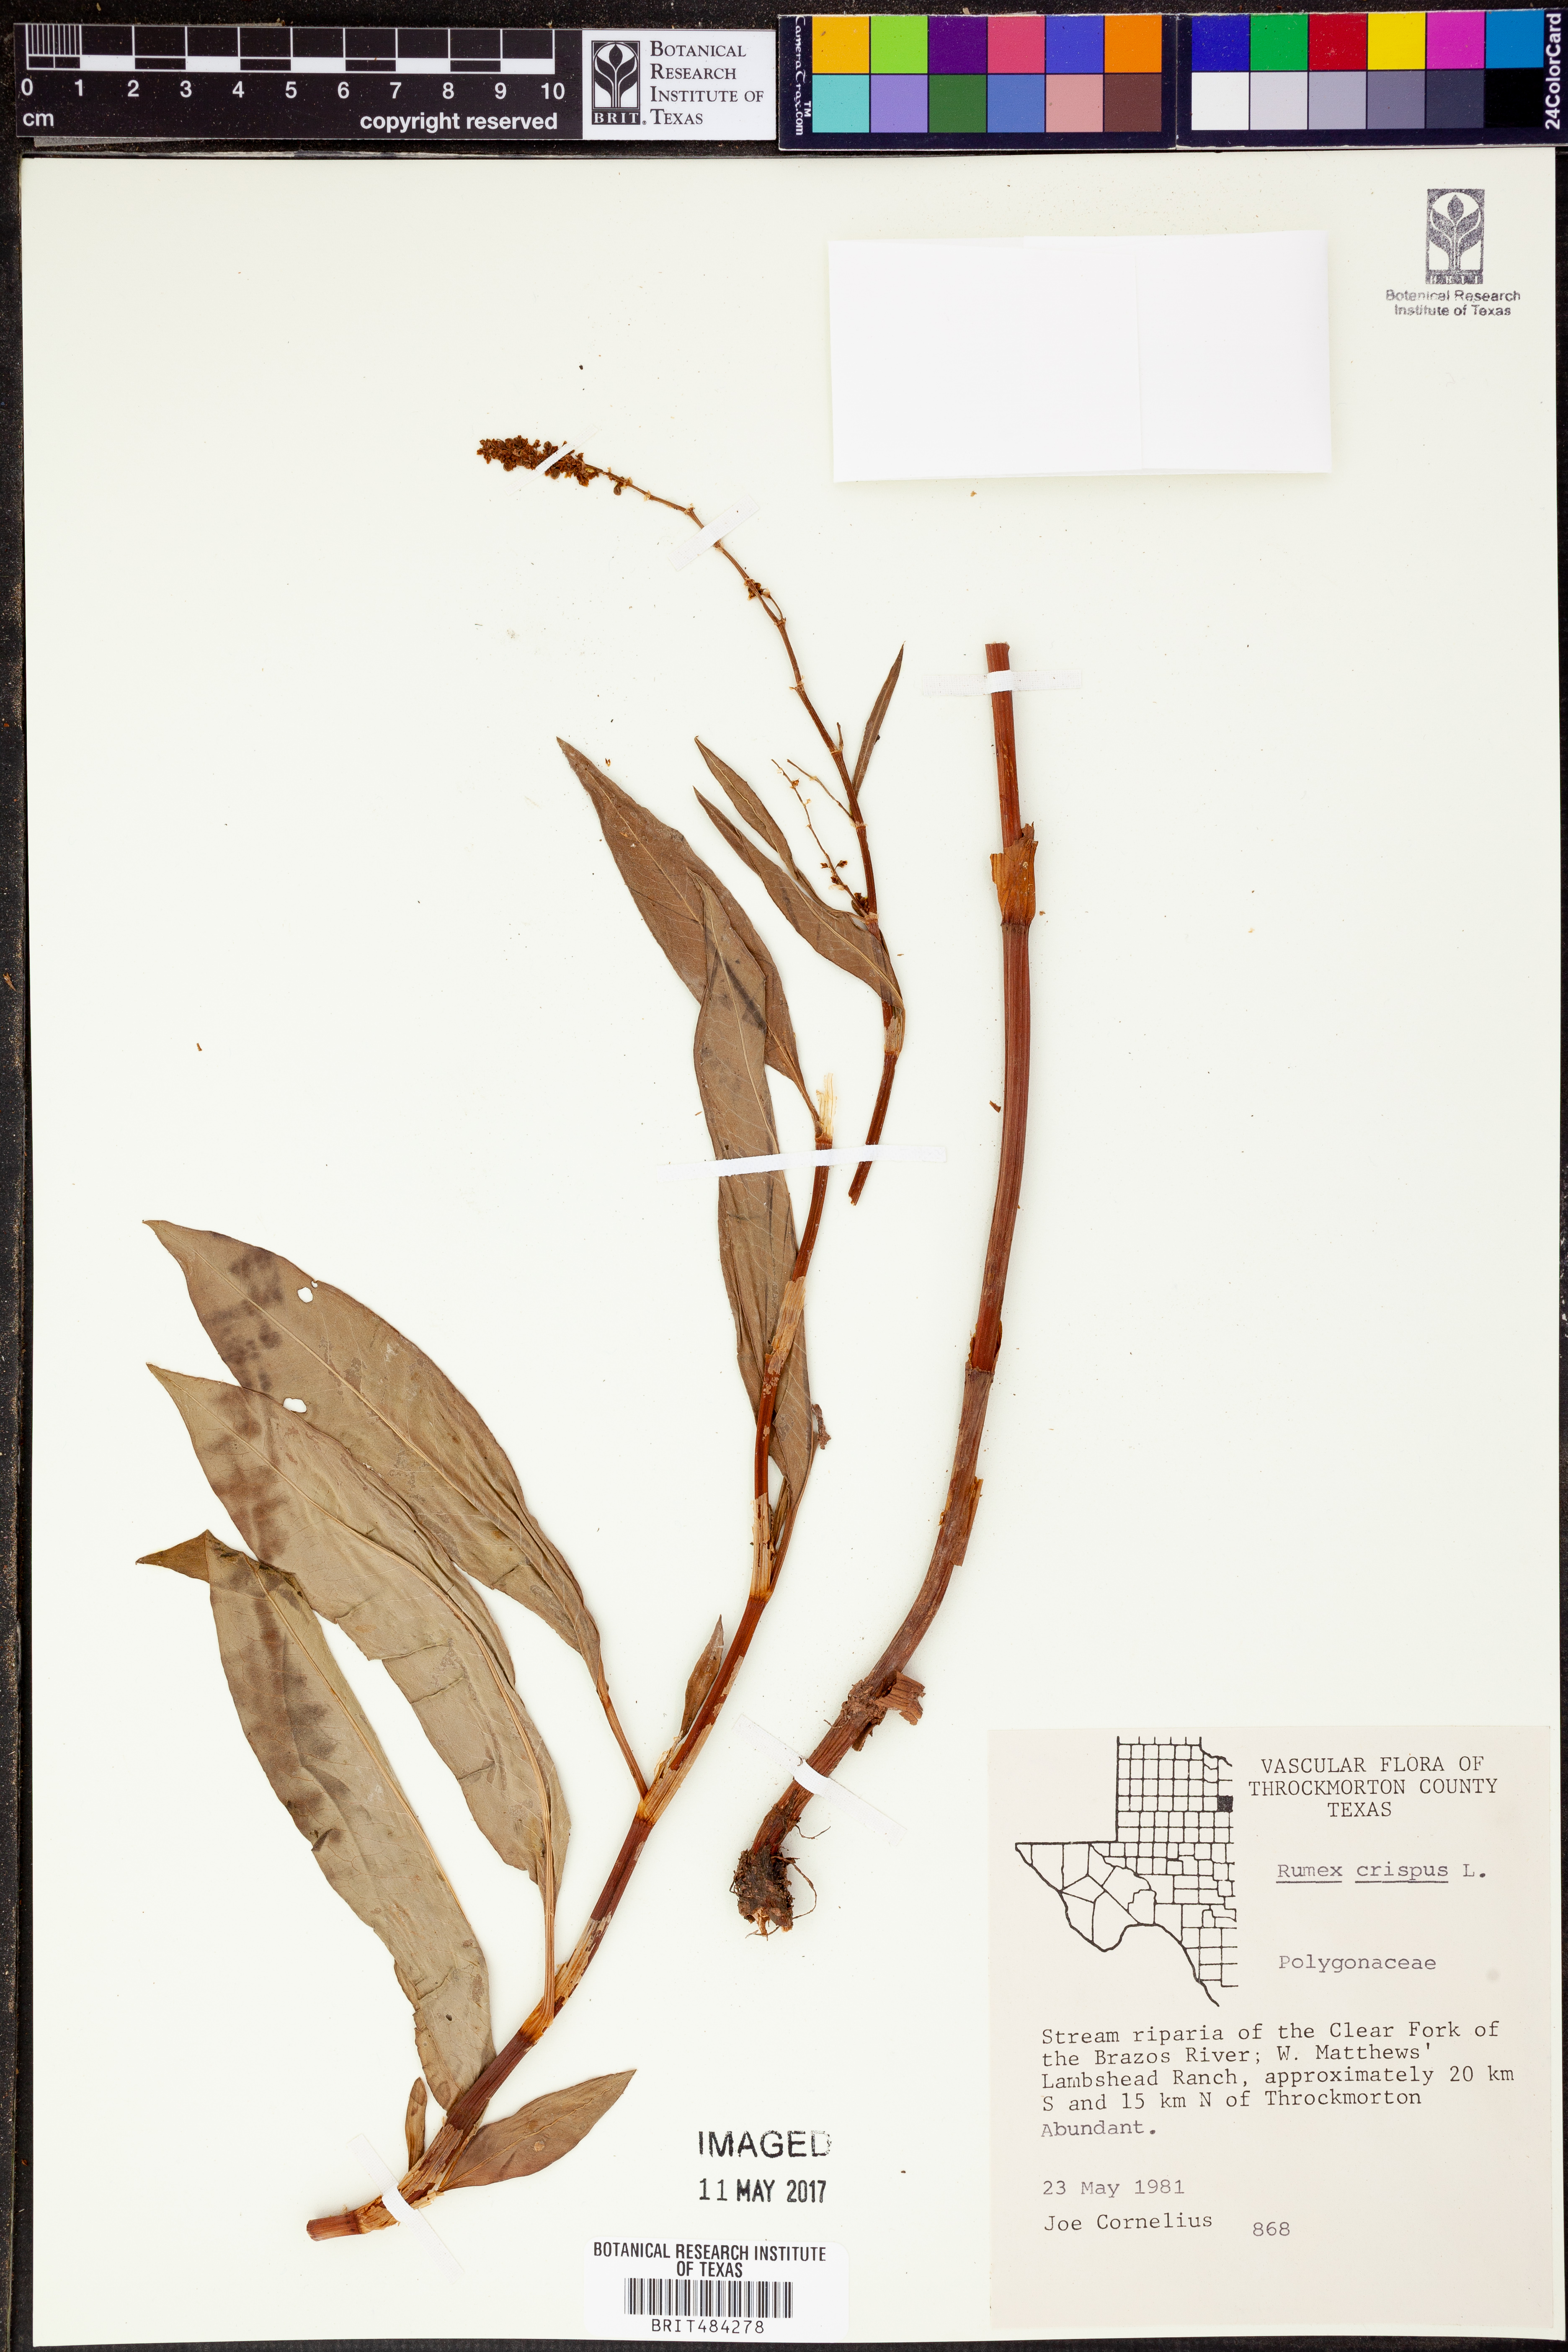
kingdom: Plantae
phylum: Tracheophyta
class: Magnoliopsida
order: Caryophyllales
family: Polygonaceae
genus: Rumex
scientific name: Rumex crispus
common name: Curled dock
